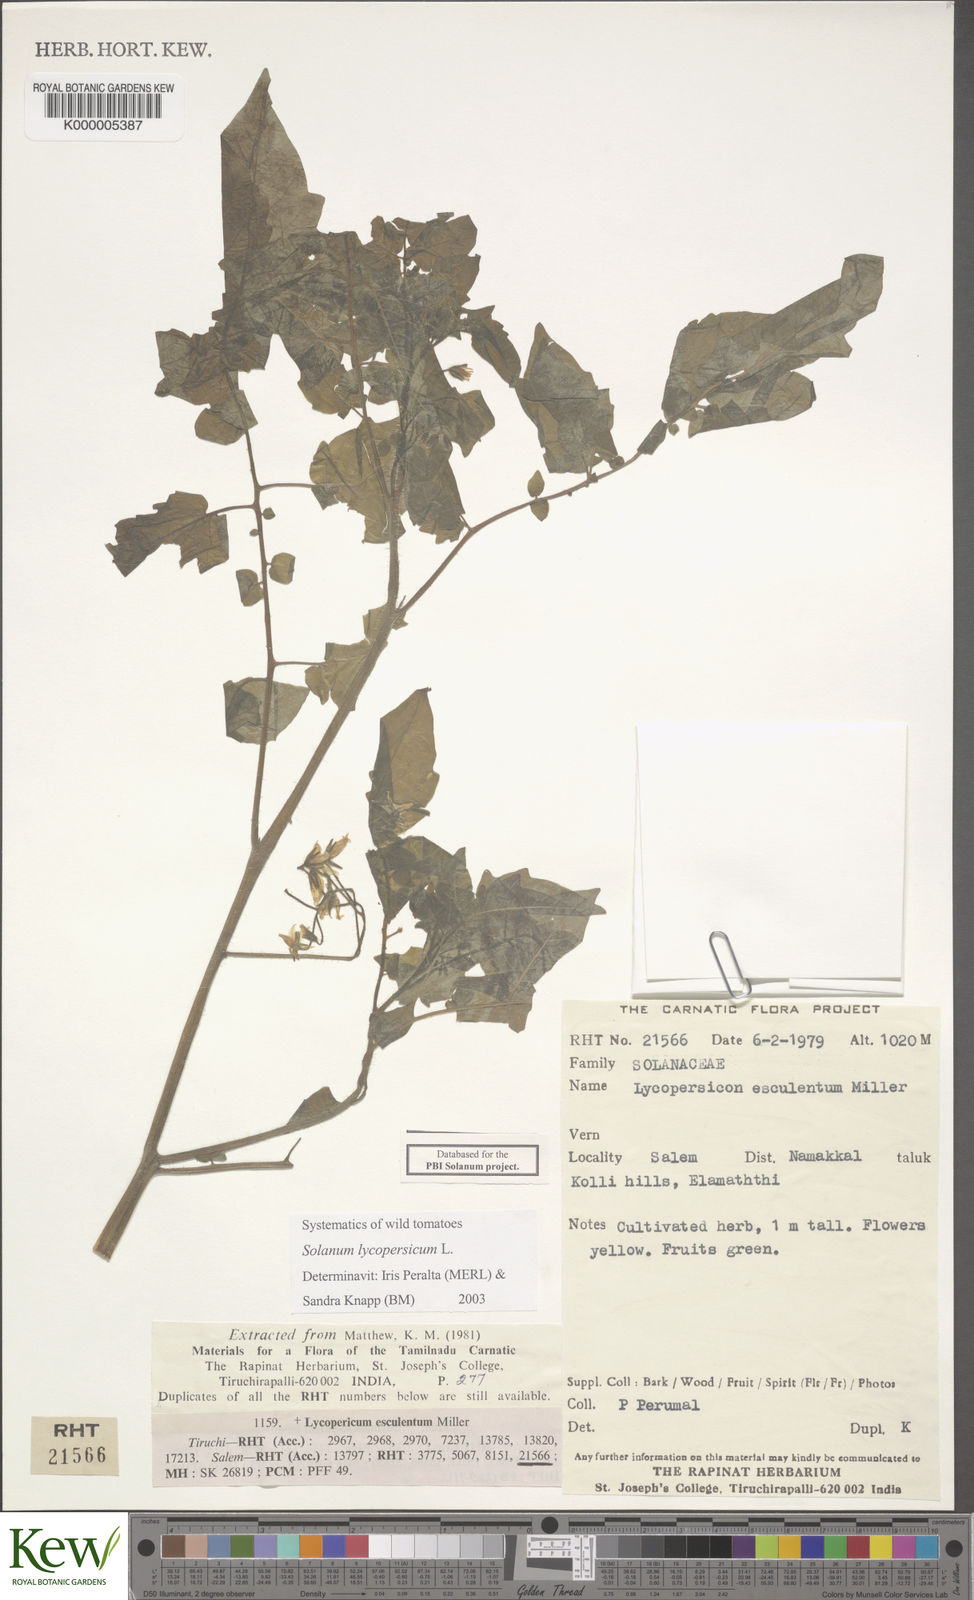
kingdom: Plantae
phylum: Tracheophyta
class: Magnoliopsida
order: Solanales
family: Solanaceae
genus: Solanum
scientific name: Solanum lycopersicum
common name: Garden tomato
